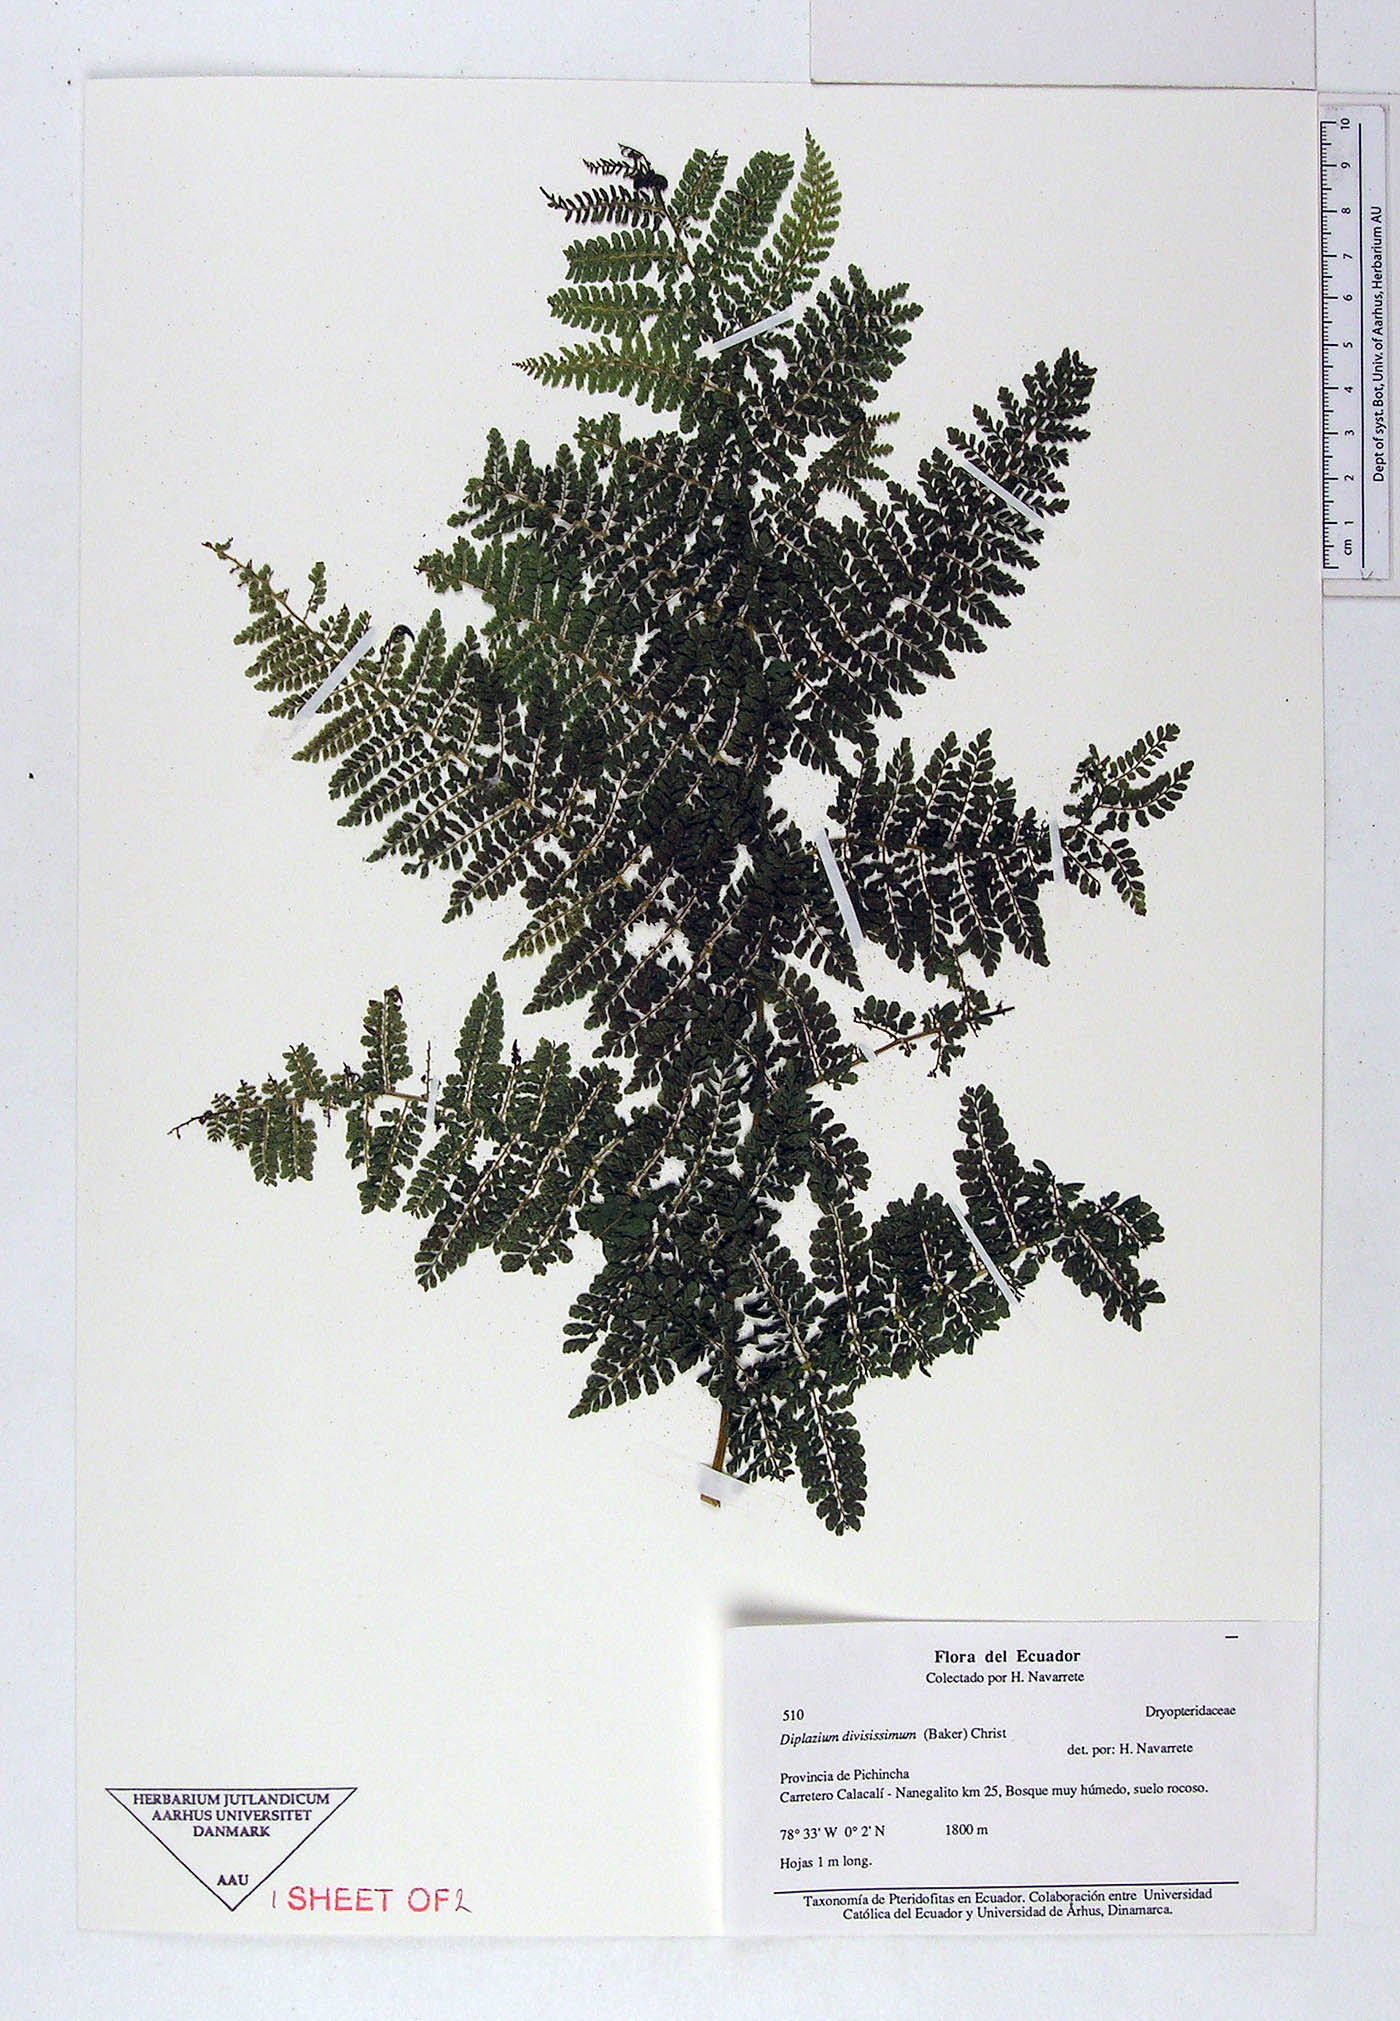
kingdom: Plantae
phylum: Tracheophyta
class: Polypodiopsida
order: Polypodiales
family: Athyriaceae
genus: Diplazium
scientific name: Diplazium
